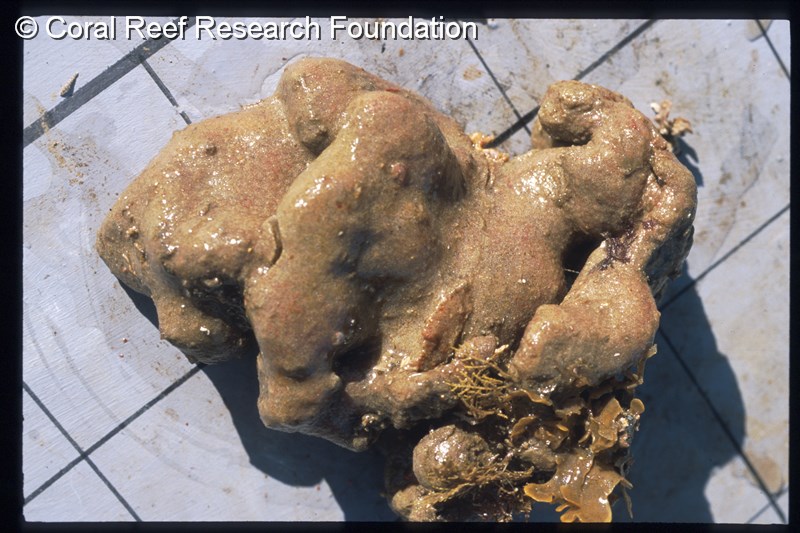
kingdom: Animalia
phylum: Chordata
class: Ascidiacea
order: Aplousobranchia
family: Polyclinidae
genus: Aplidium
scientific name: Aplidium mernooensis
